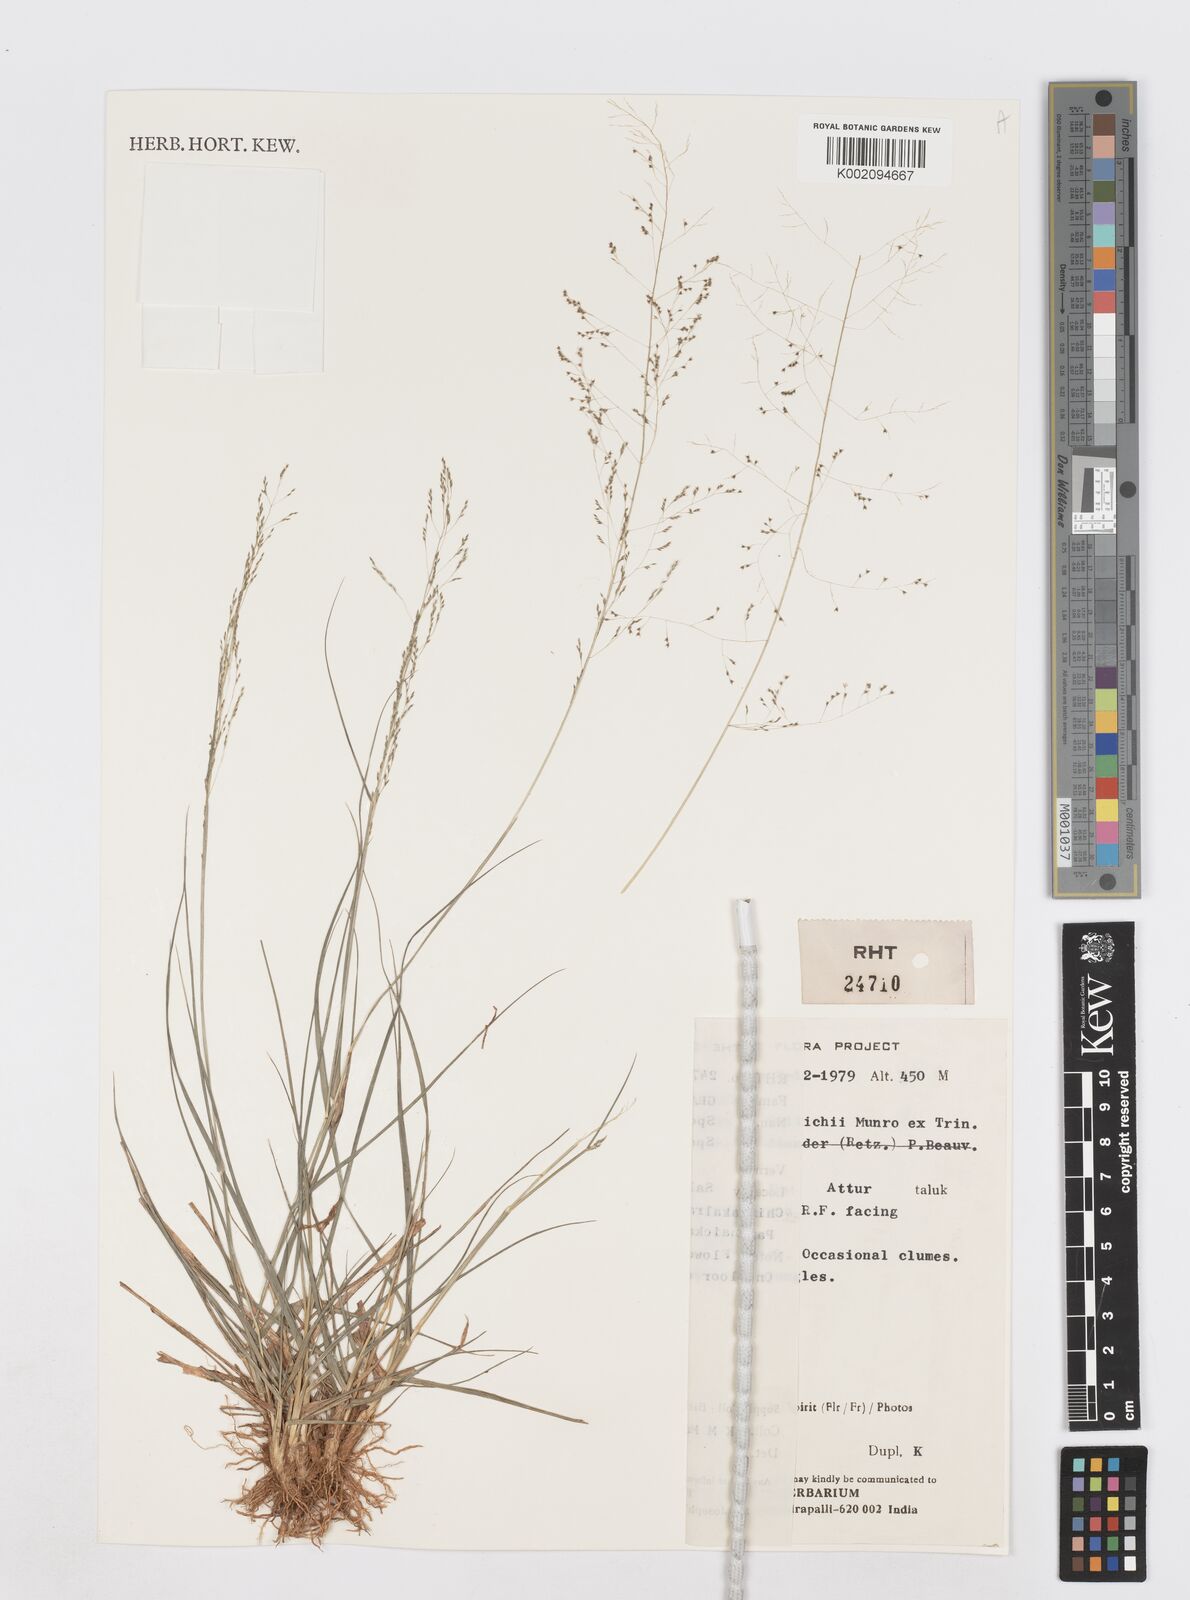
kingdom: Plantae
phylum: Tracheophyta
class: Liliopsida
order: Poales
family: Poaceae
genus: Sporobolus
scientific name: Sporobolus wallichii
